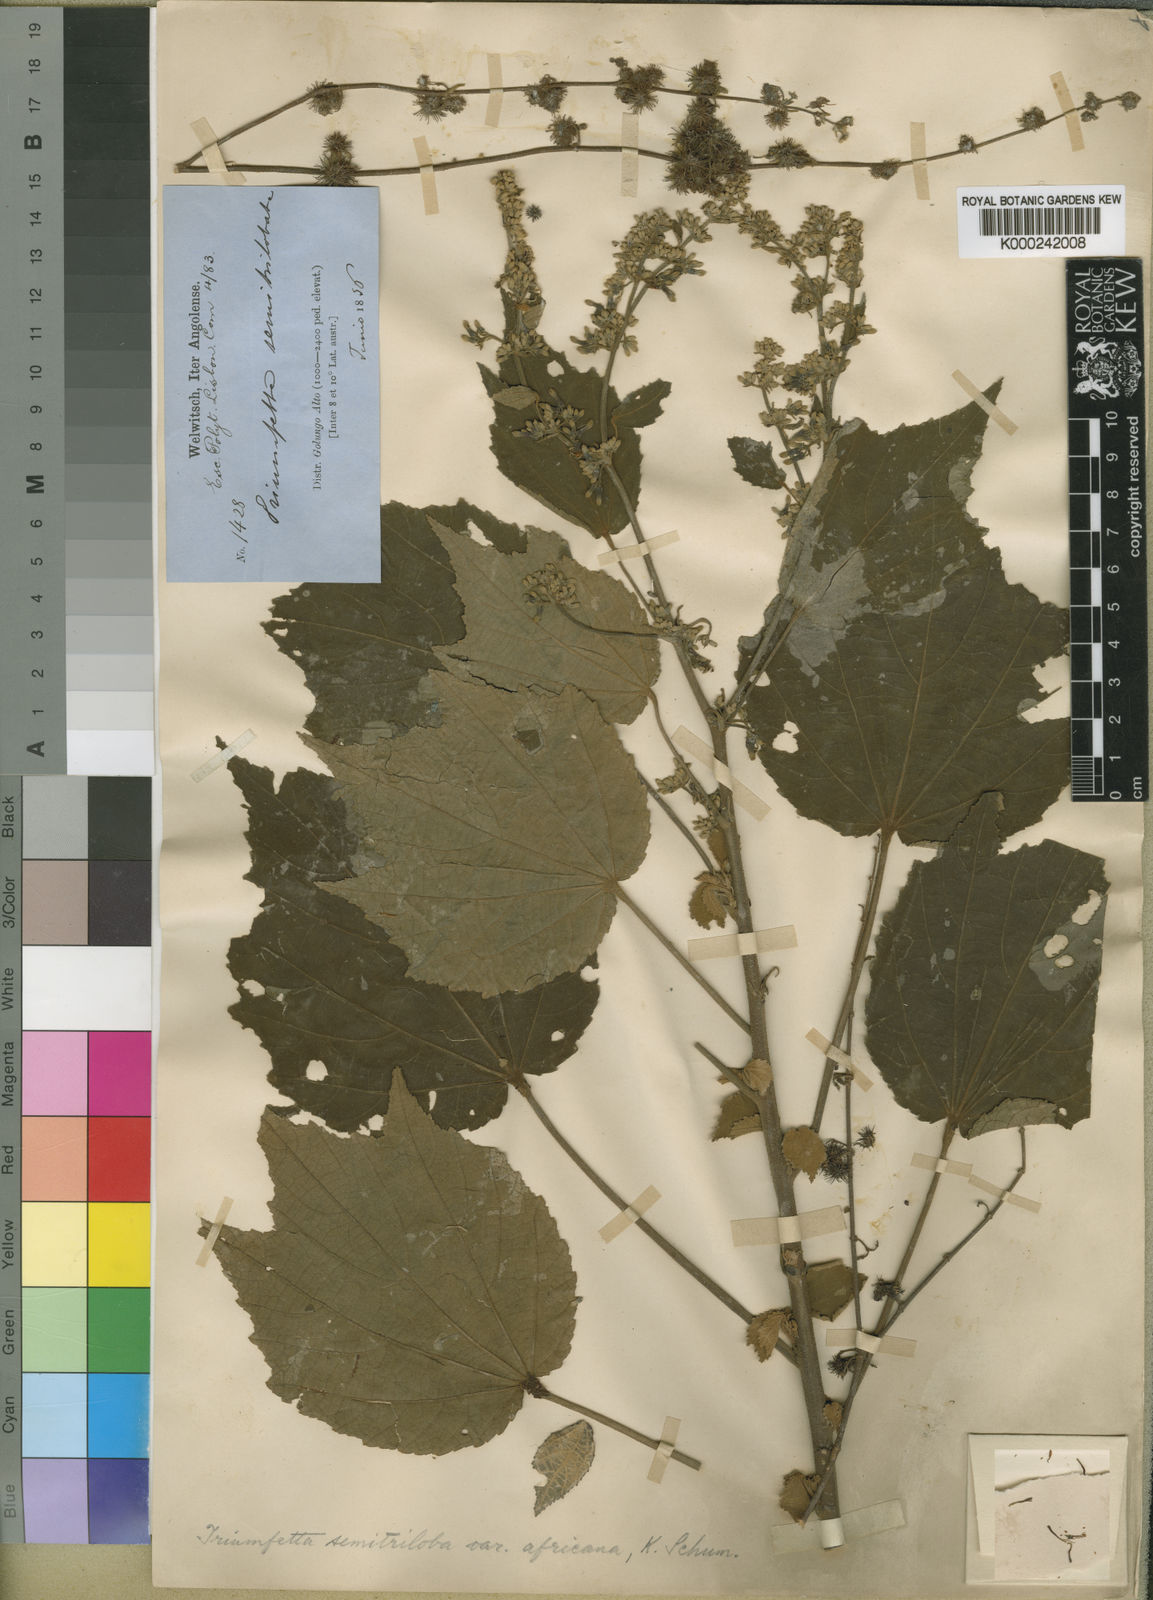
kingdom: Plantae
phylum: Tracheophyta
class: Magnoliopsida
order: Malvales
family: Malvaceae
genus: Triumfetta
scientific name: Triumfetta cordifolia
